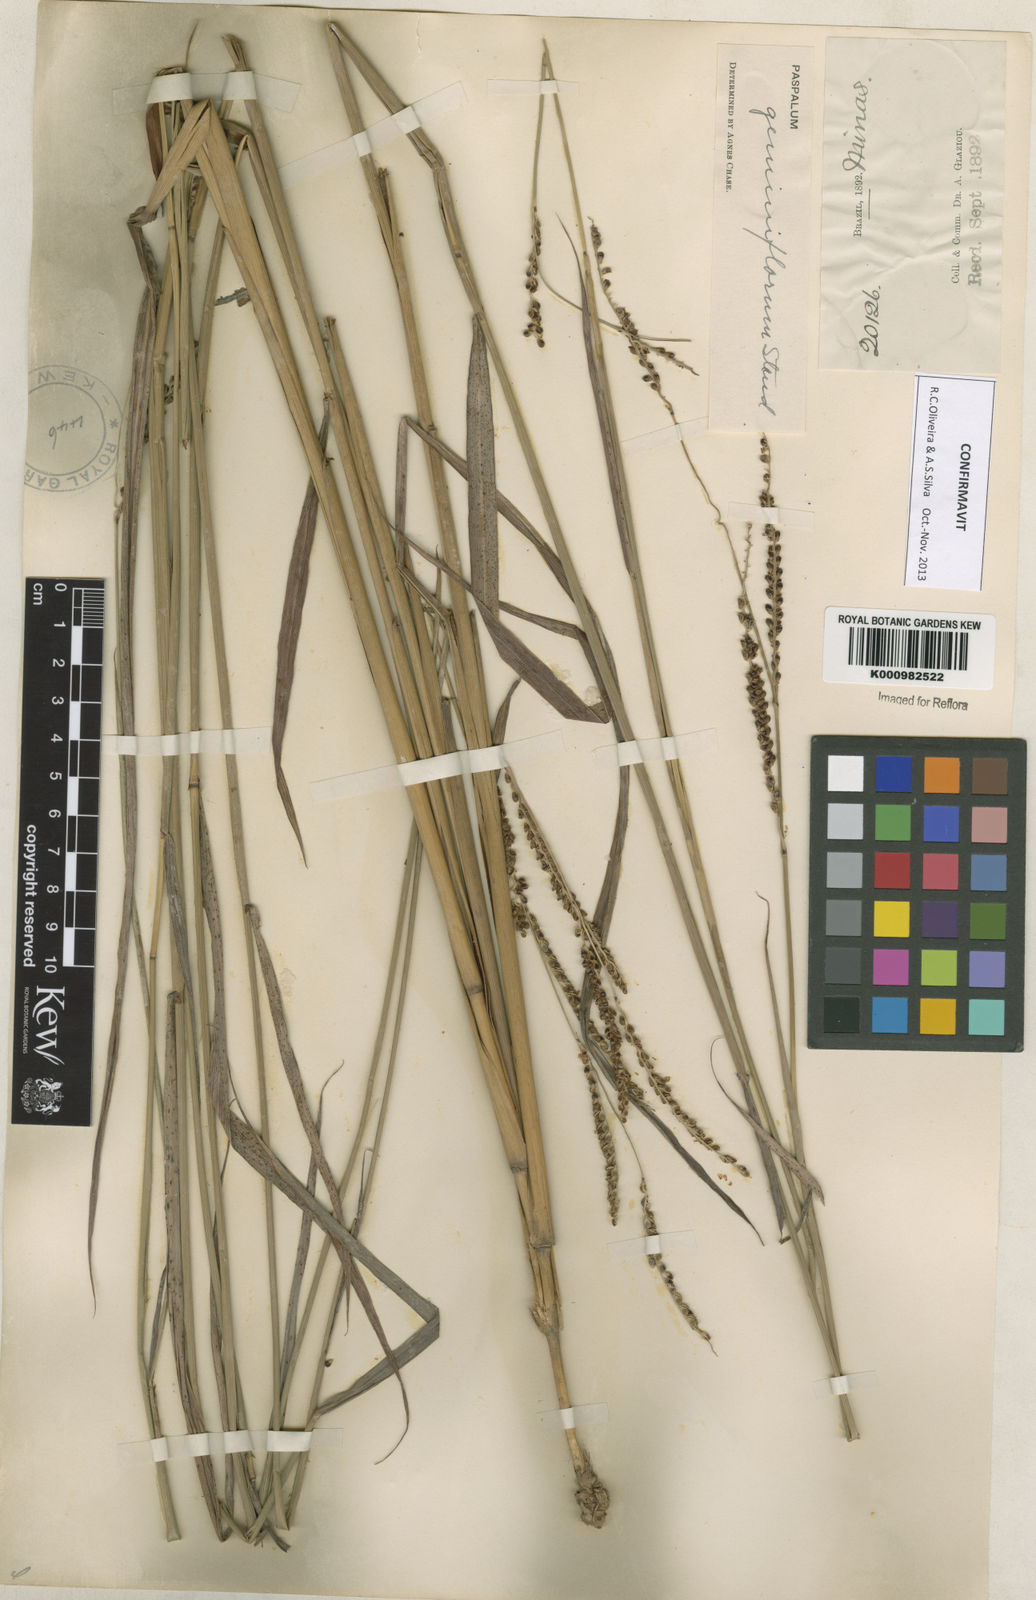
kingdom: Plantae
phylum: Tracheophyta
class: Liliopsida
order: Poales
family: Poaceae
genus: Paspalum
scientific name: Paspalum geminiflorum
